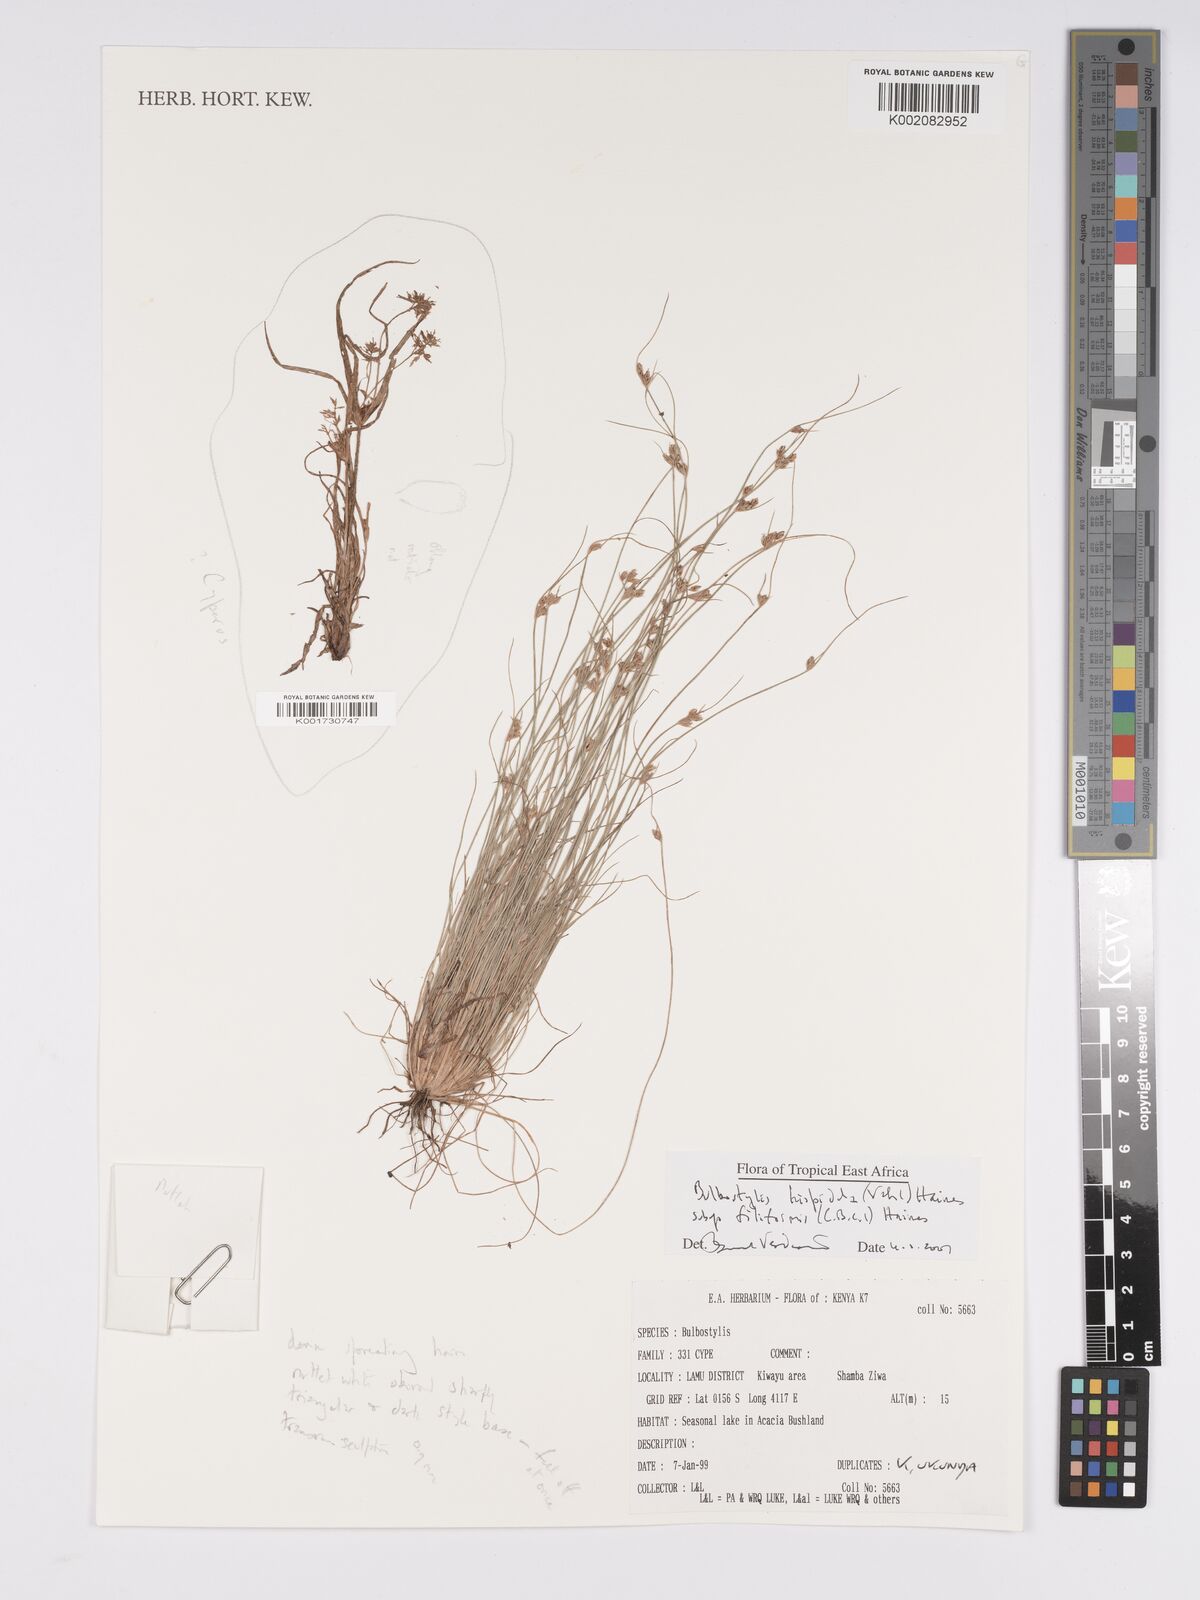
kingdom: Plantae
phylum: Tracheophyta
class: Liliopsida
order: Poales
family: Cyperaceae
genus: Bulbostylis
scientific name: Bulbostylis hispidula
